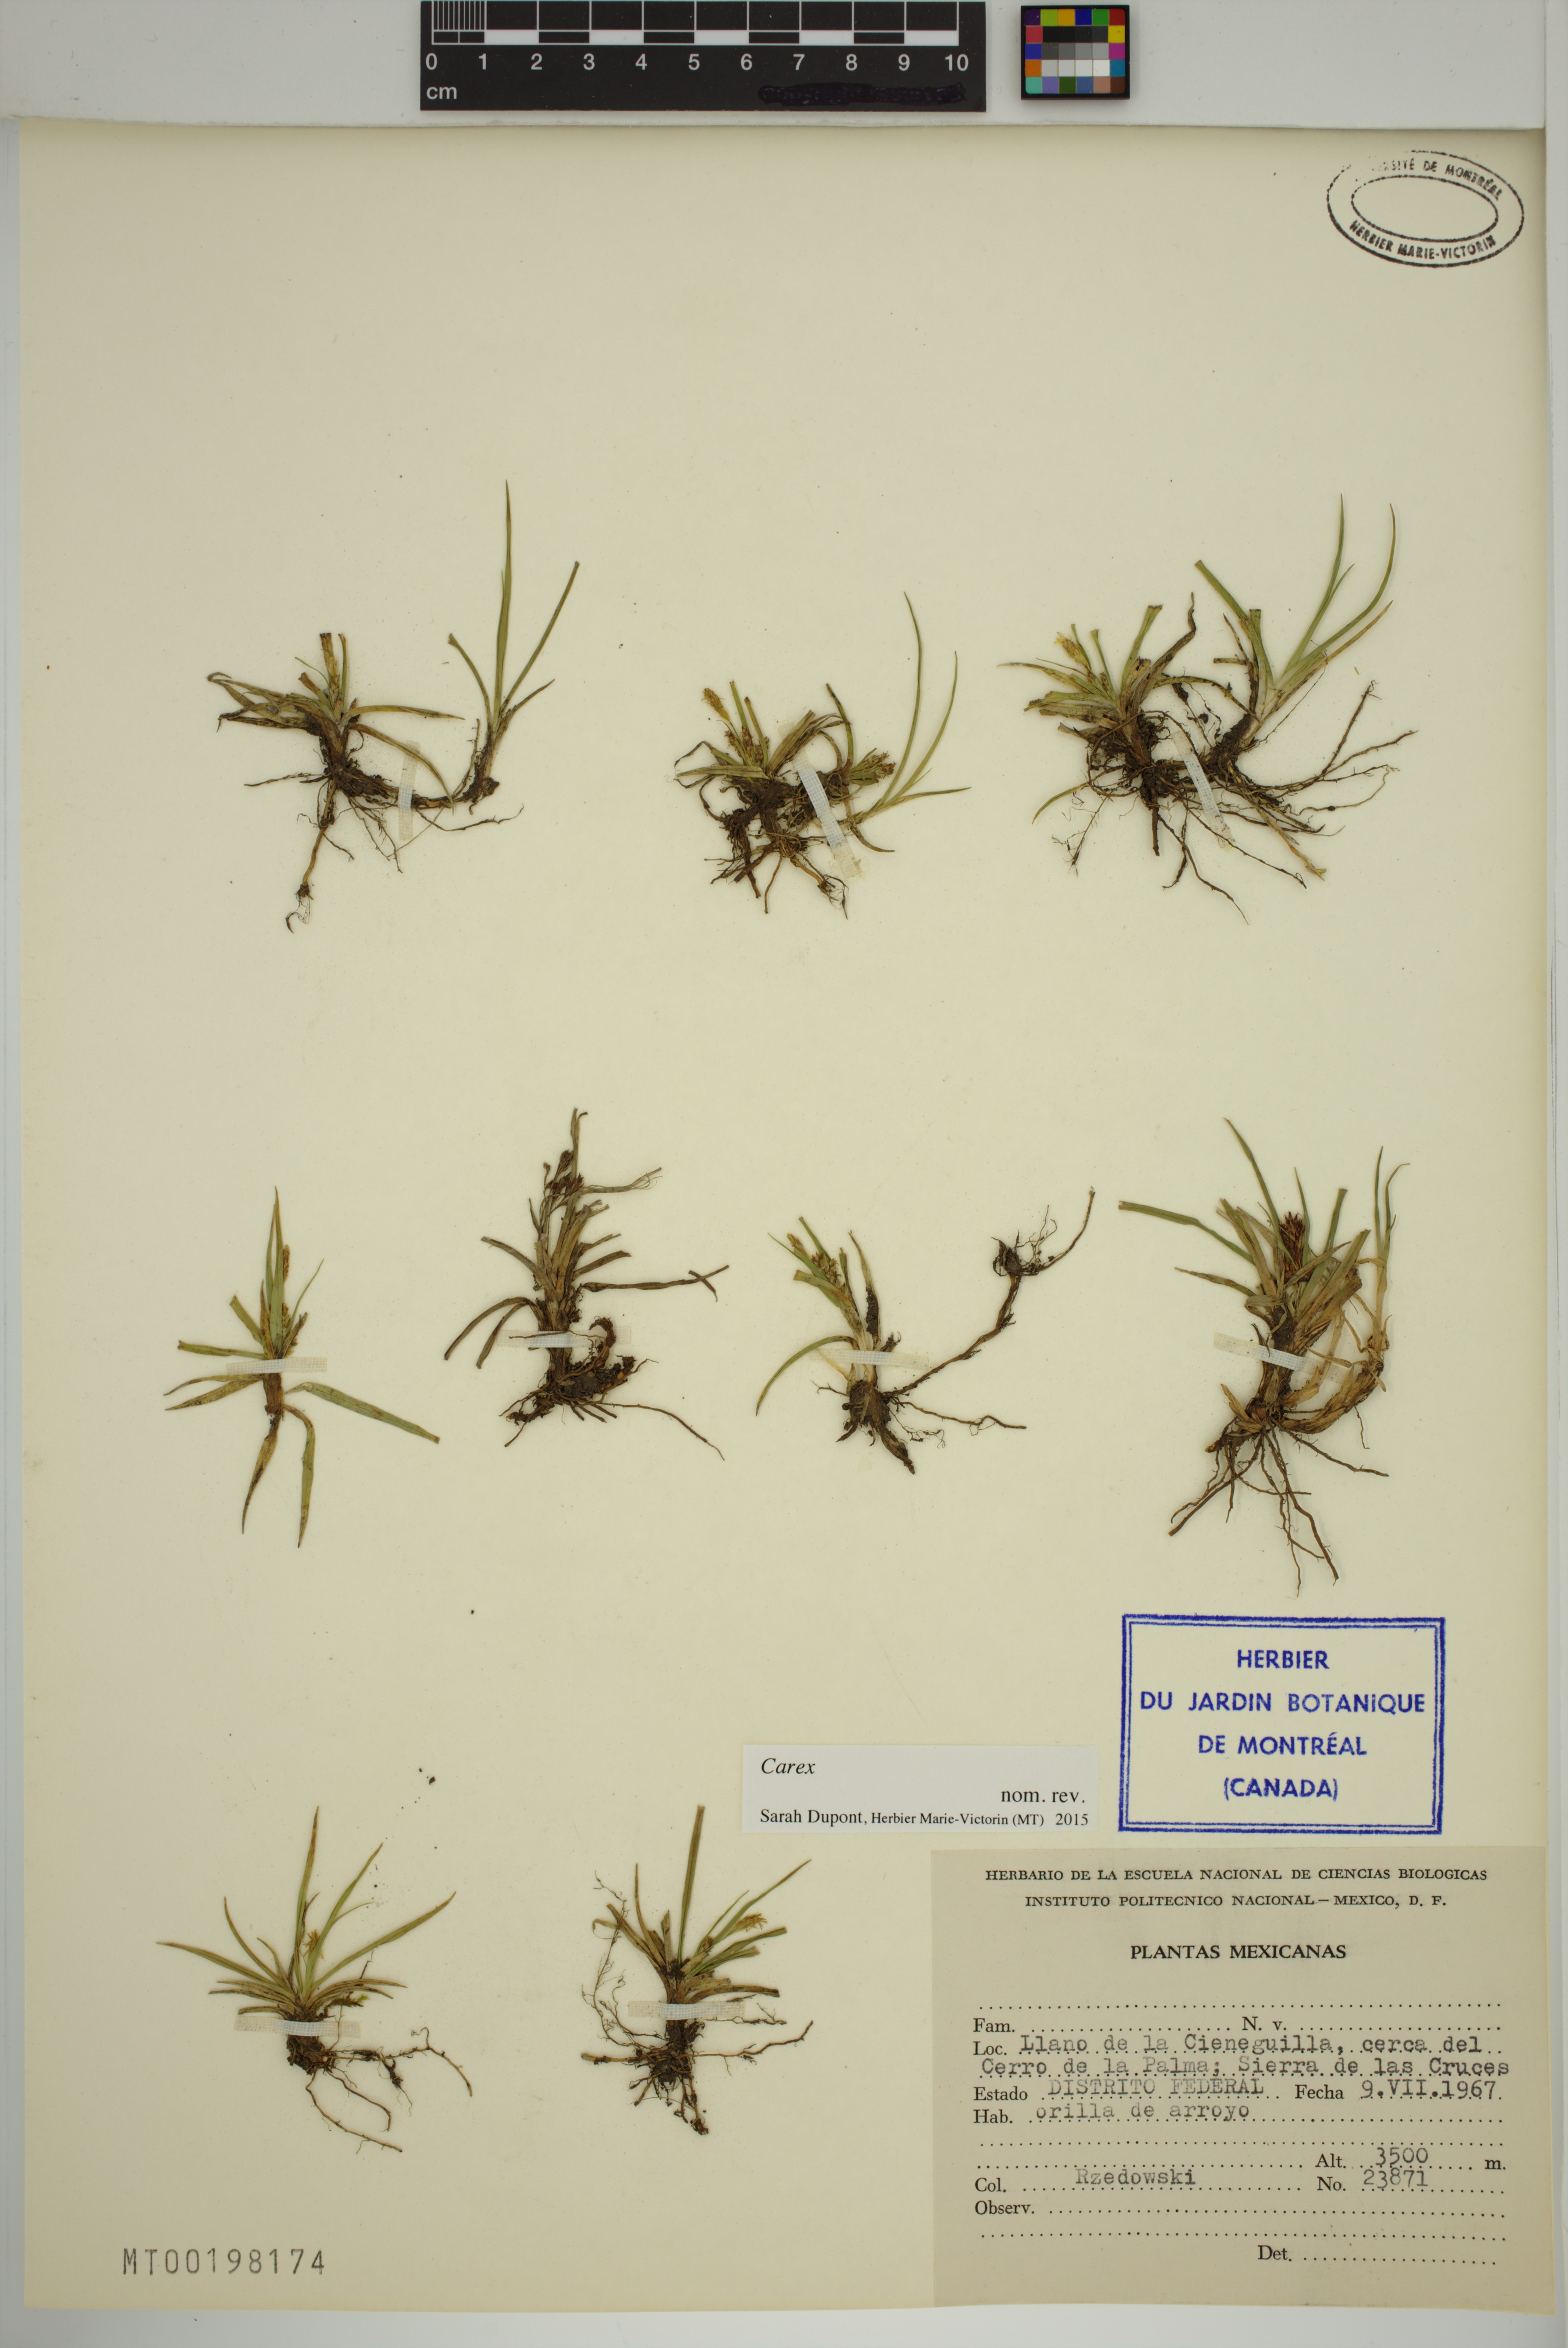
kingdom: Plantae
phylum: Tracheophyta
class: Liliopsida
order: Poales
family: Cyperaceae
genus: Carex
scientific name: Carex
